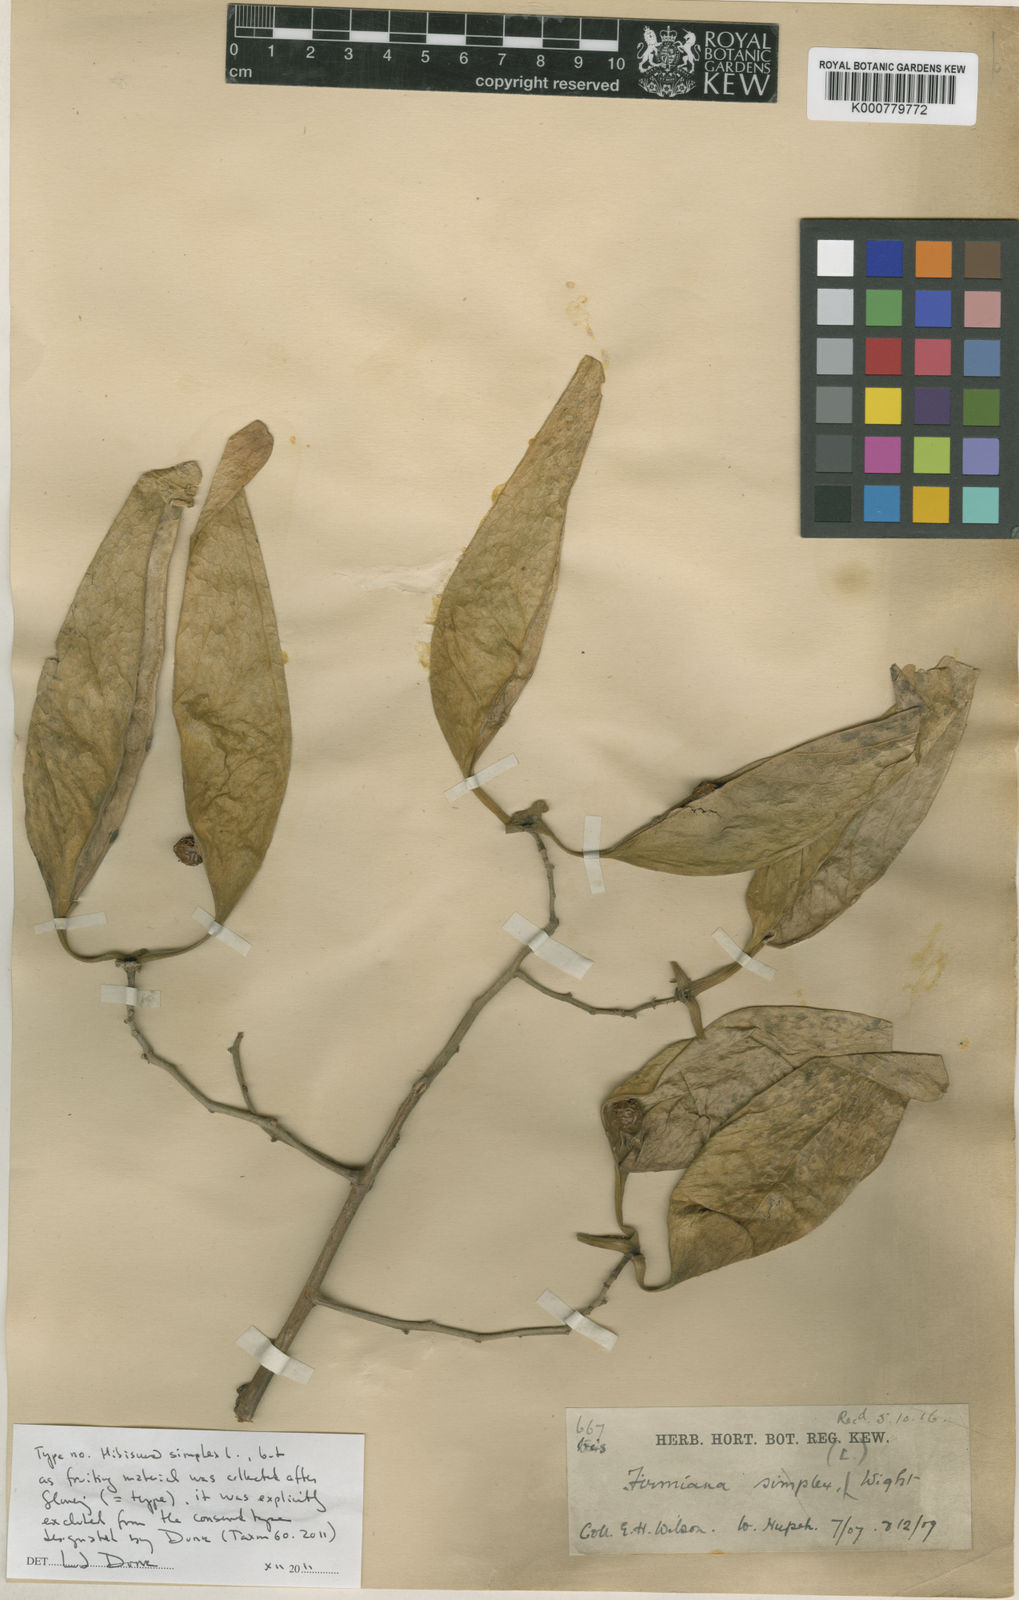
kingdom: Plantae
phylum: Tracheophyta
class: Magnoliopsida
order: Malvales
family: Malvaceae
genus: Firmiana
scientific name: Firmiana simplex
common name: Chinese parasoltree
